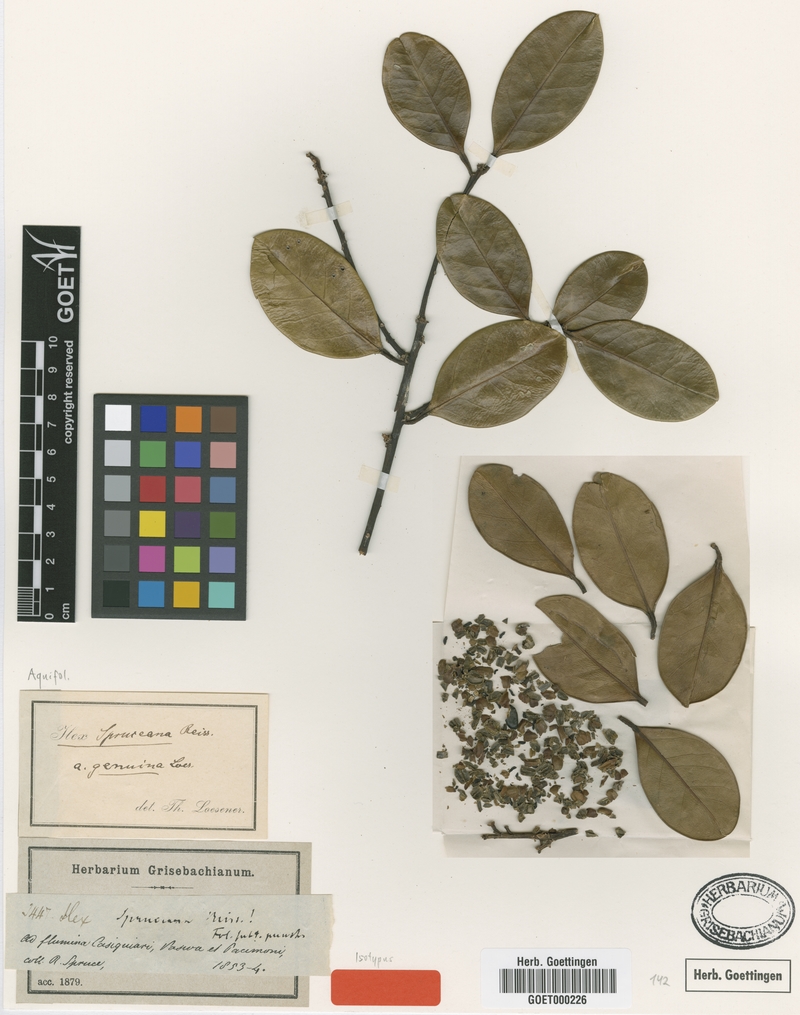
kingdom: Plantae
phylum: Tracheophyta
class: Magnoliopsida
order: Aquifoliales
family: Aquifoliaceae
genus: Ilex
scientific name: Ilex spruceana
